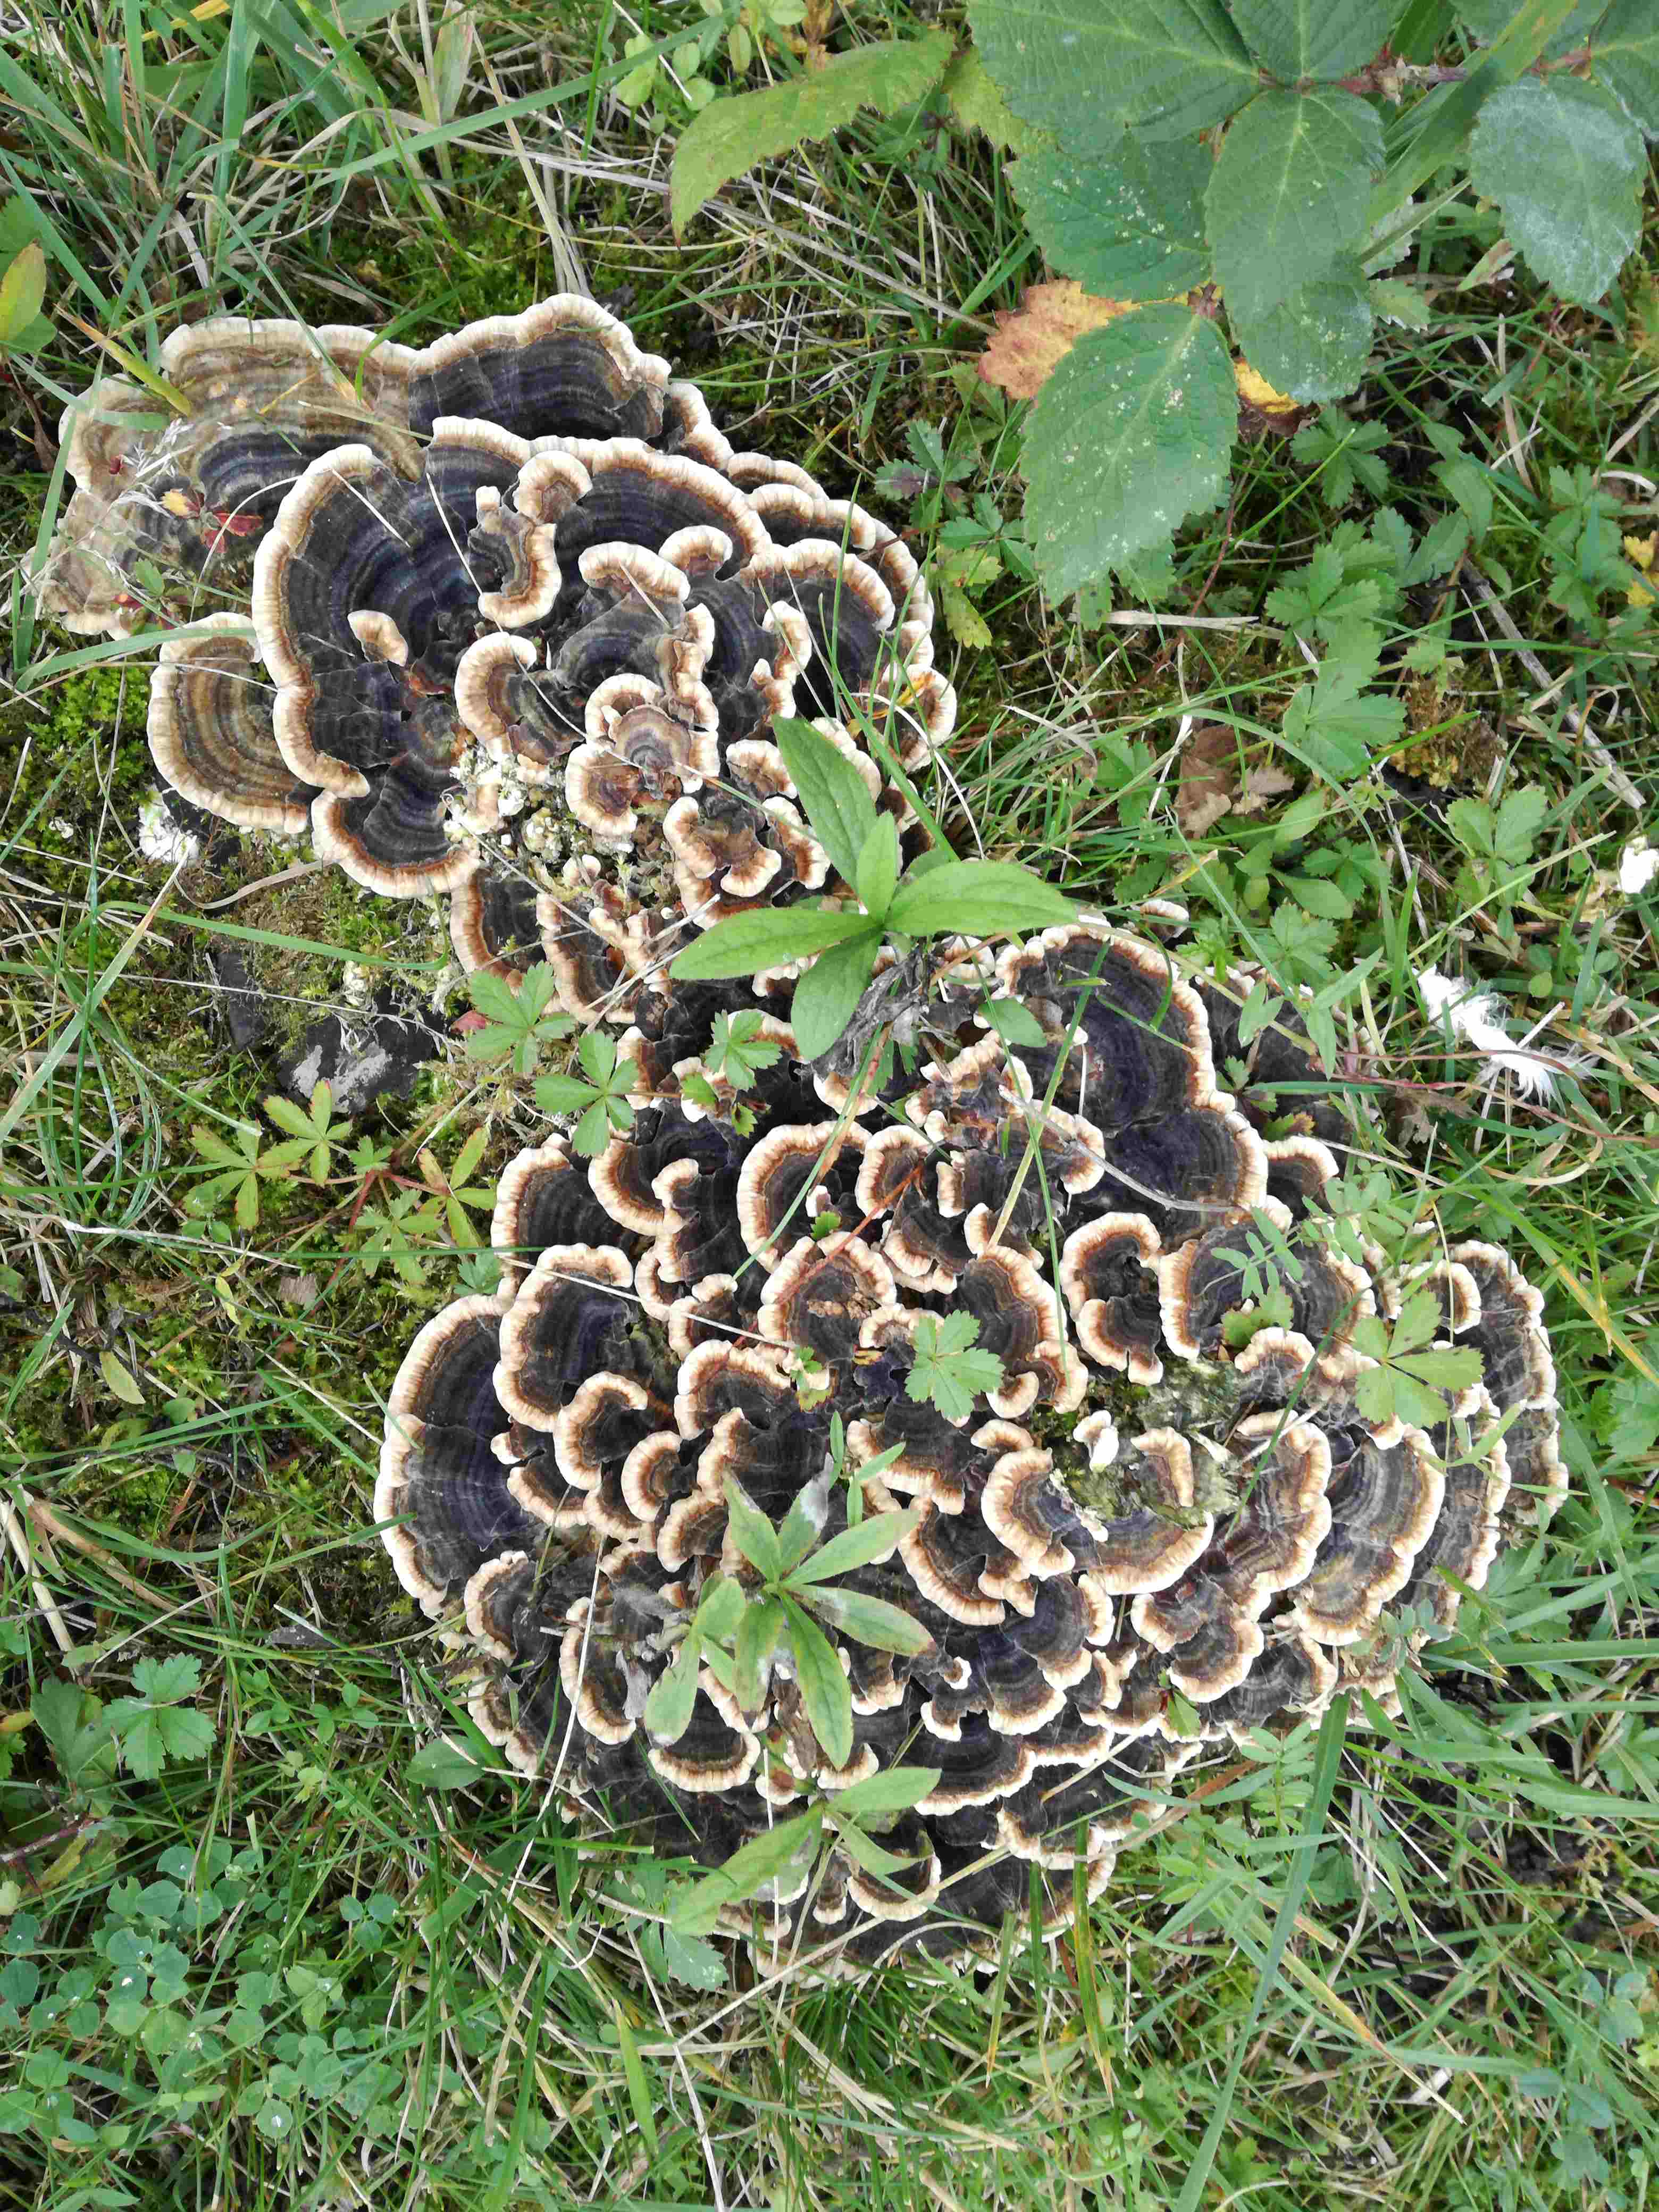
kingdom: Fungi
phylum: Basidiomycota
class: Agaricomycetes
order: Polyporales
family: Polyporaceae
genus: Trametes
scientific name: Trametes versicolor
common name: broget læderporesvamp
